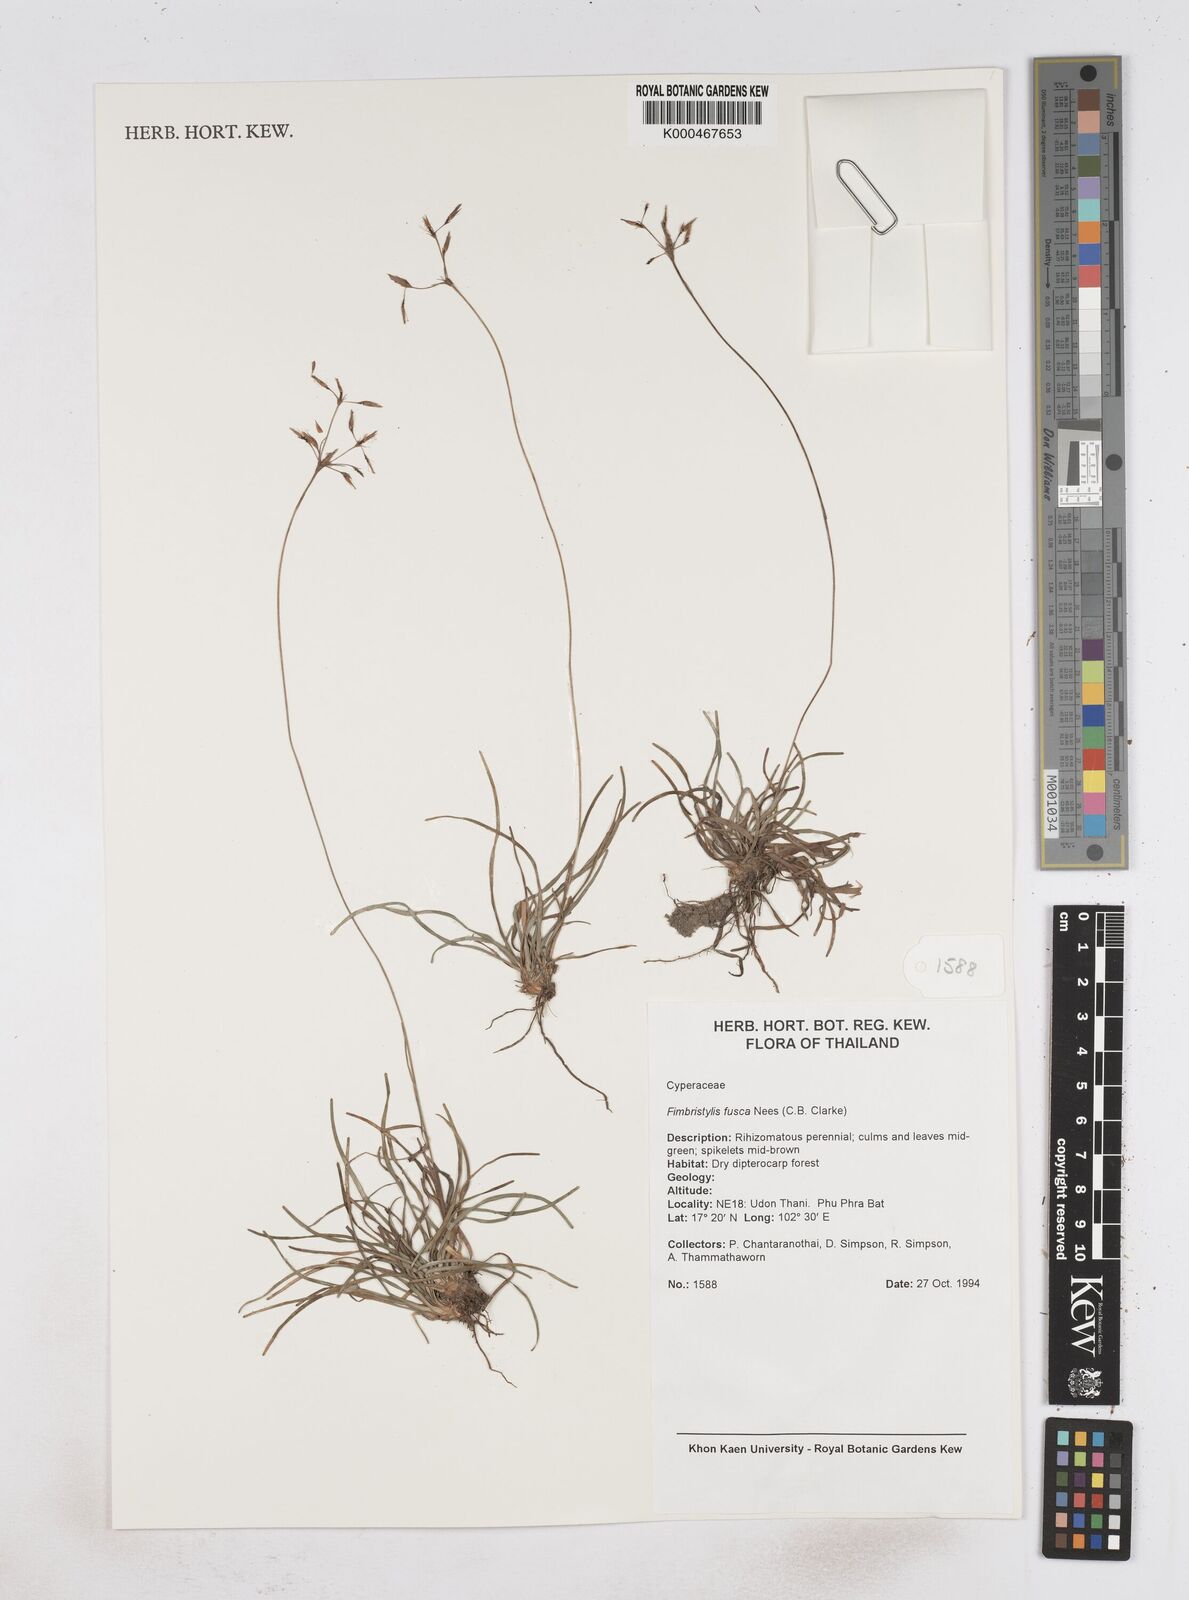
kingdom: Plantae
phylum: Tracheophyta
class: Liliopsida
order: Poales
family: Cyperaceae
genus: Fimbristylis
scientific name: Fimbristylis fusca
